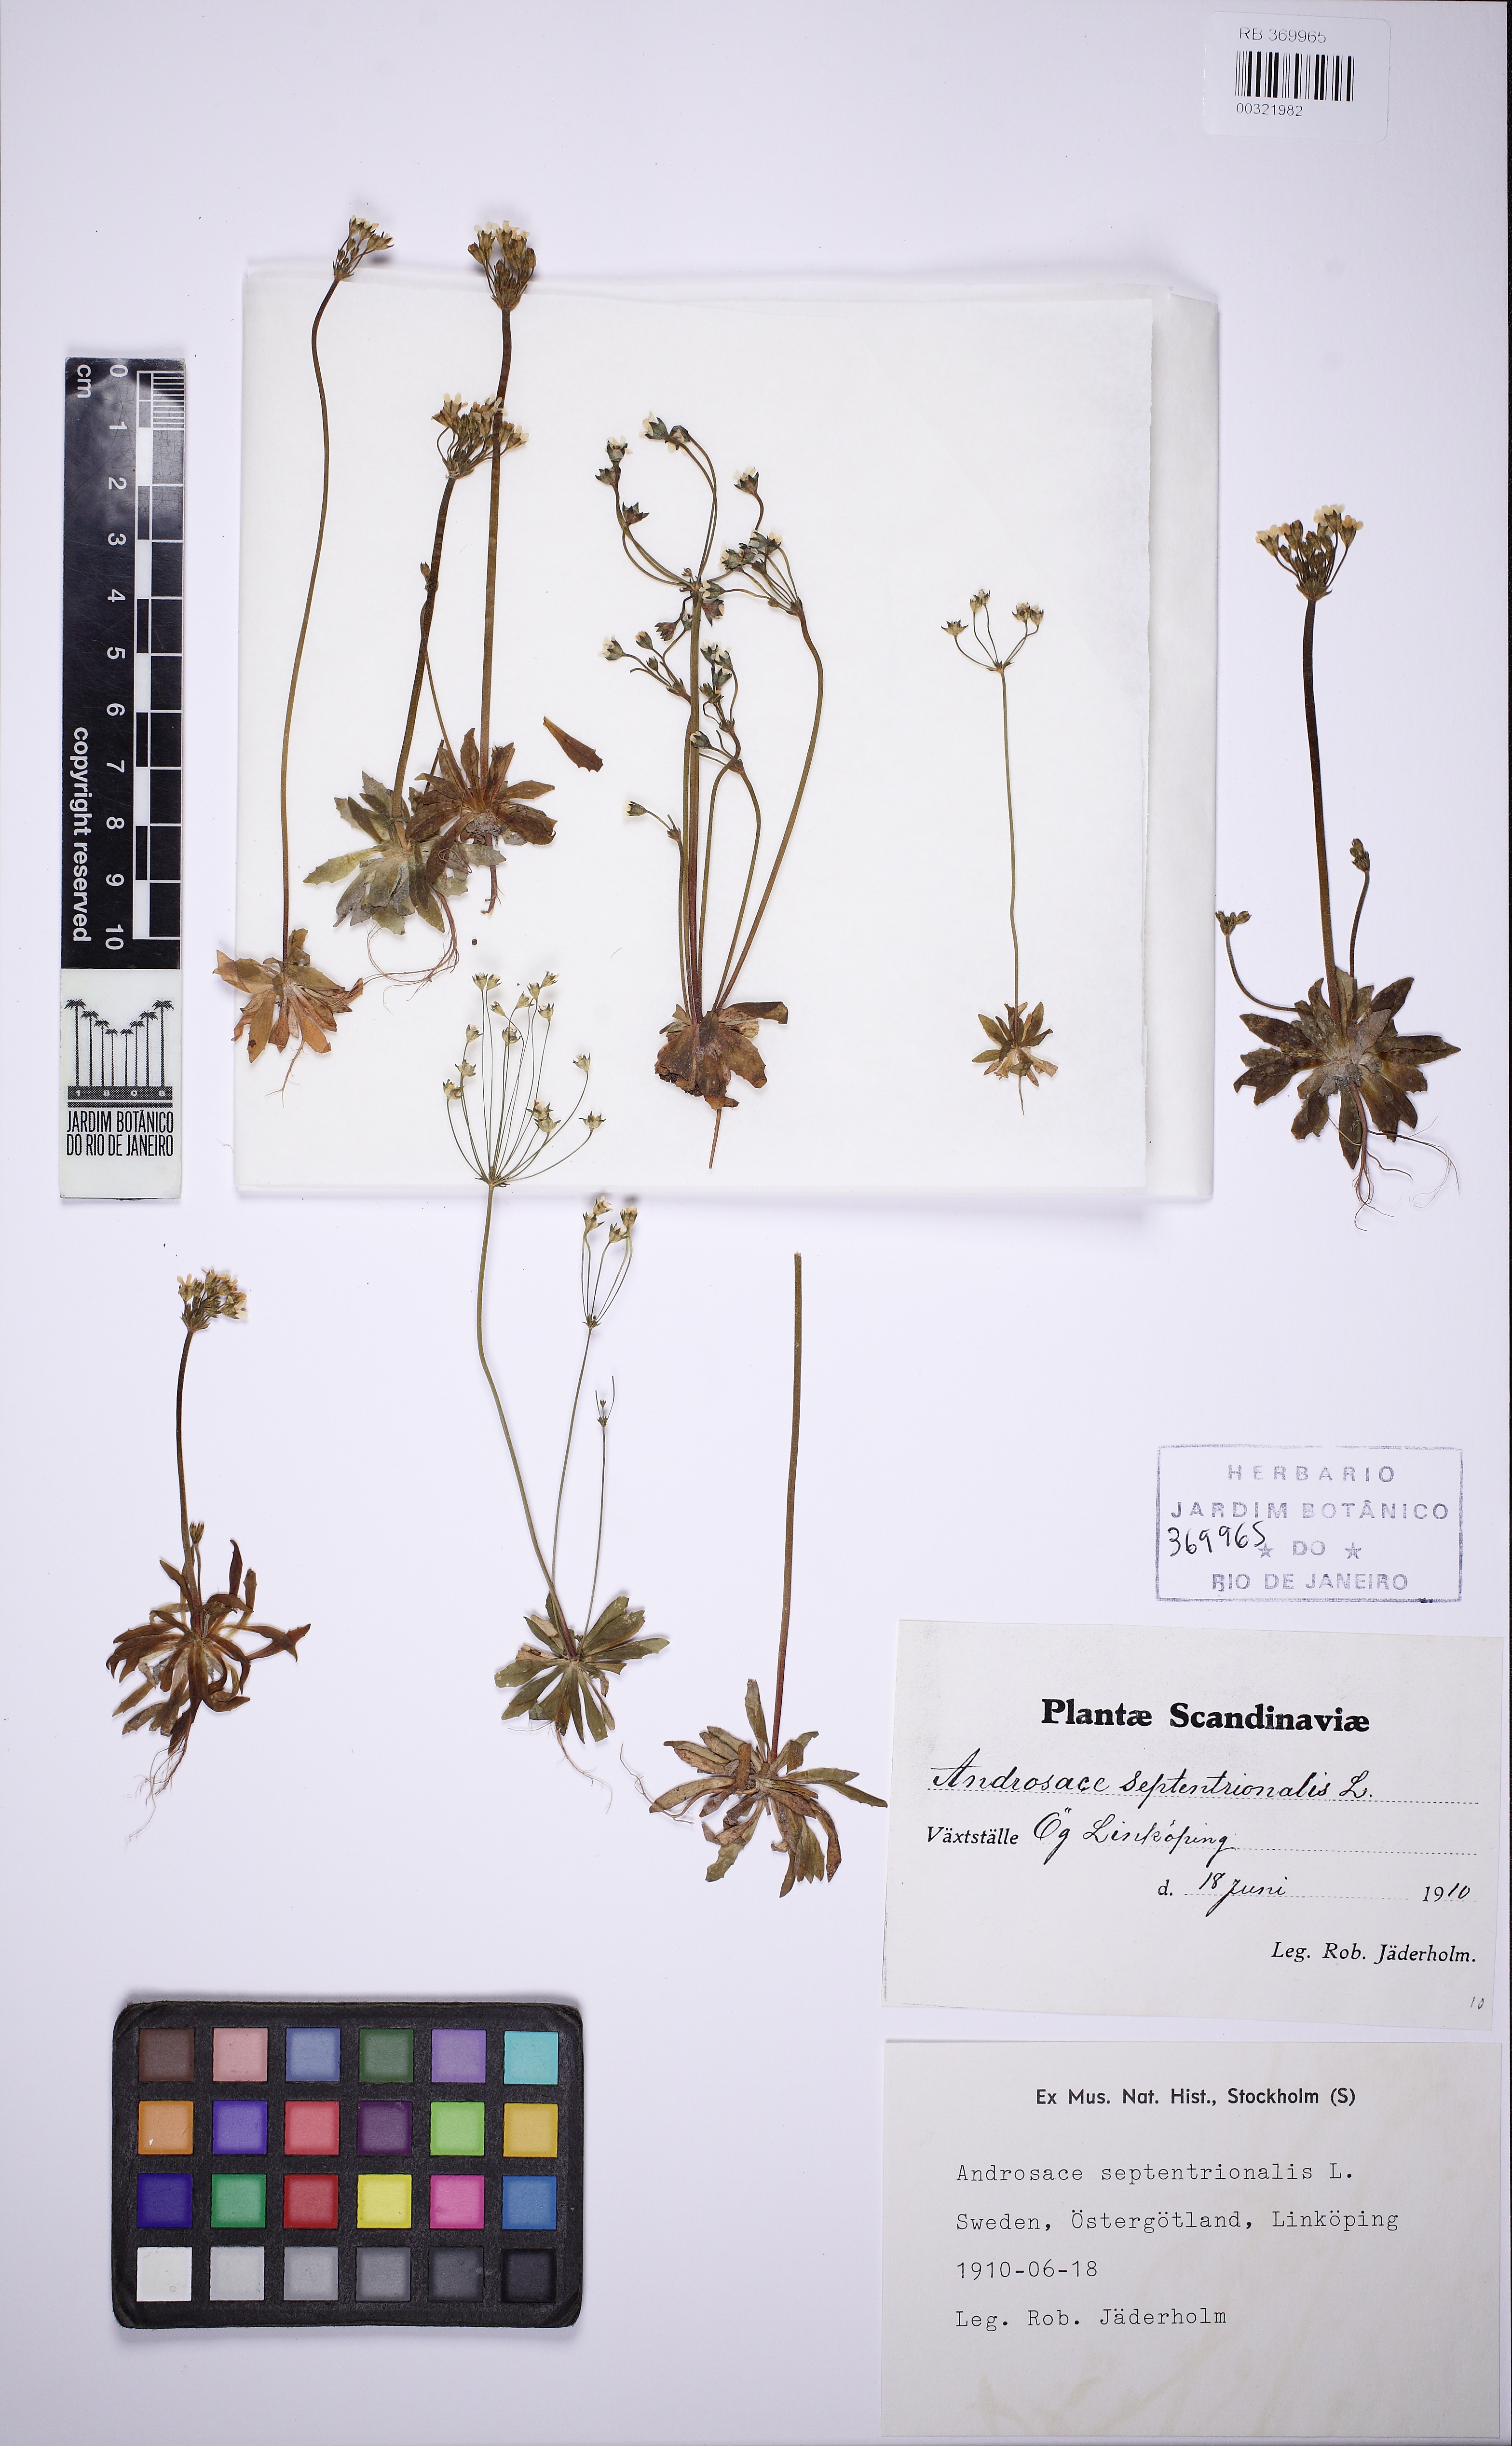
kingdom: Plantae
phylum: Tracheophyta
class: Magnoliopsida
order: Ericales
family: Primulaceae
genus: Androsace
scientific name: Androsace septentrionalis
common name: Hairy northern fairy-candelabra
